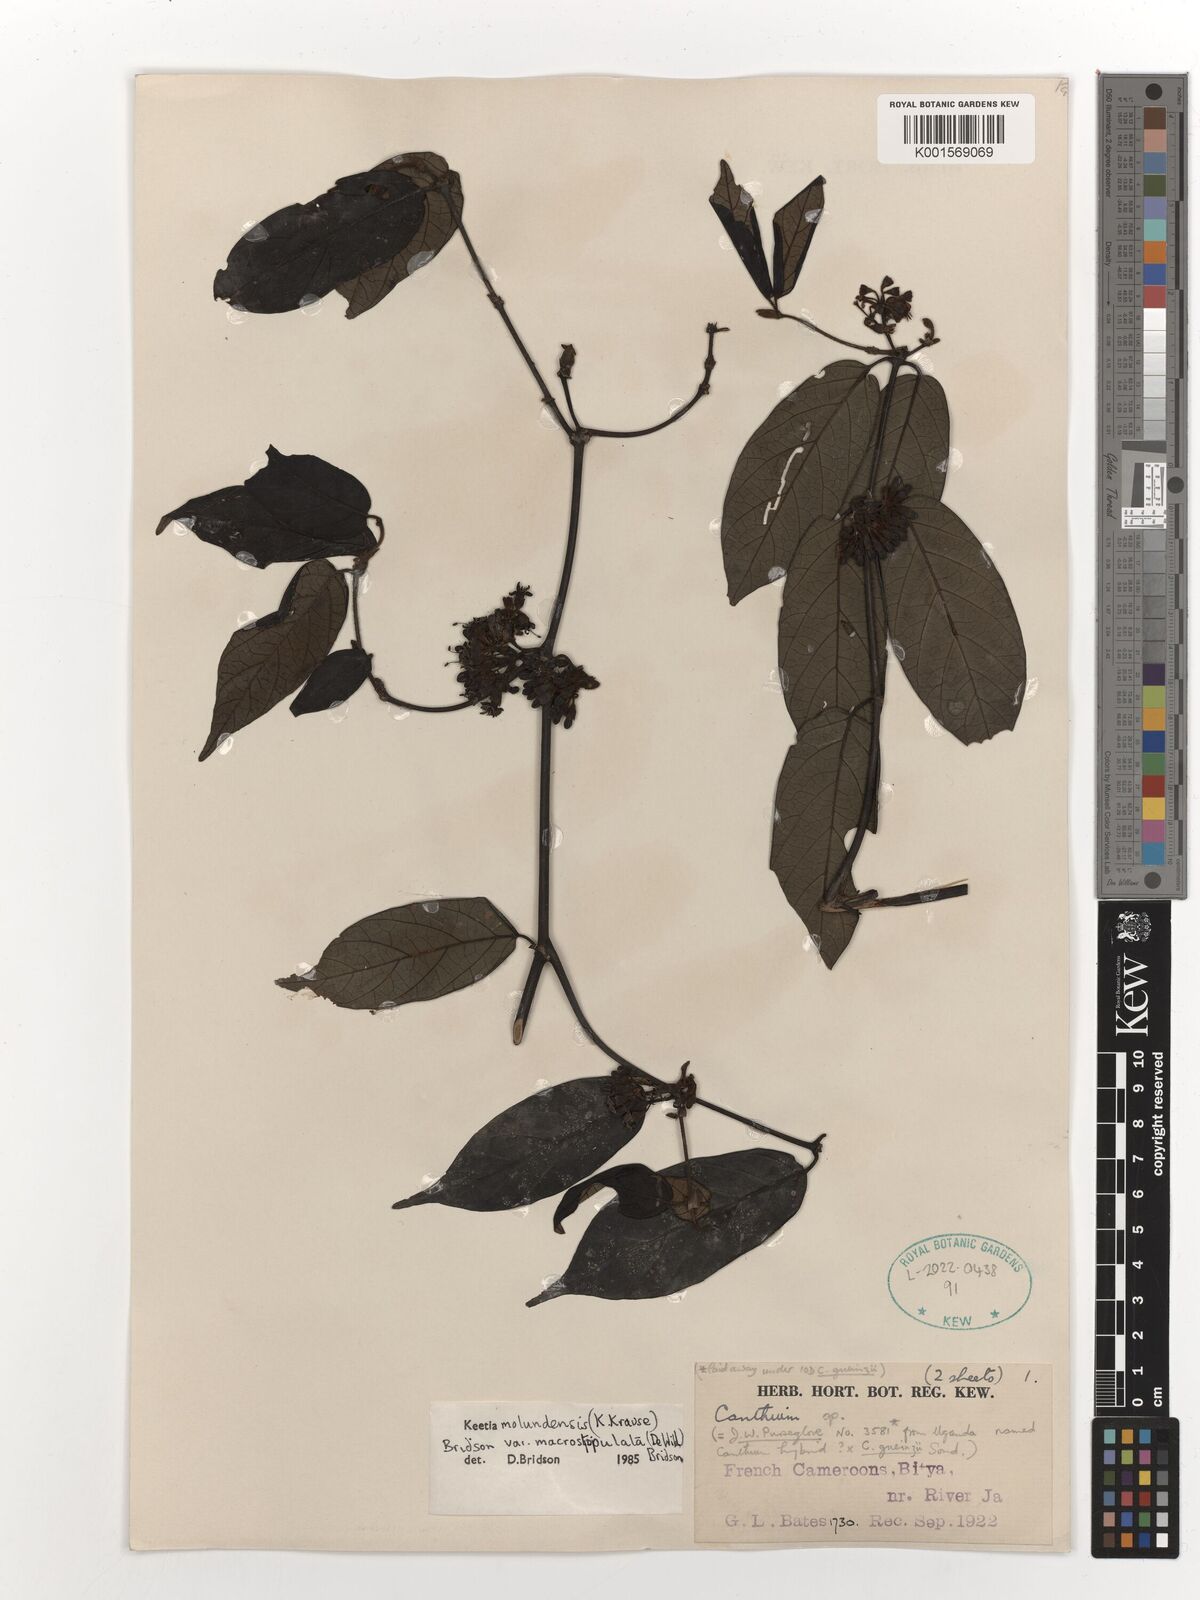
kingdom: Plantae
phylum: Tracheophyta
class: Magnoliopsida
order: Gentianales
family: Rubiaceae
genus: Keetia
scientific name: Keetia molundensis
